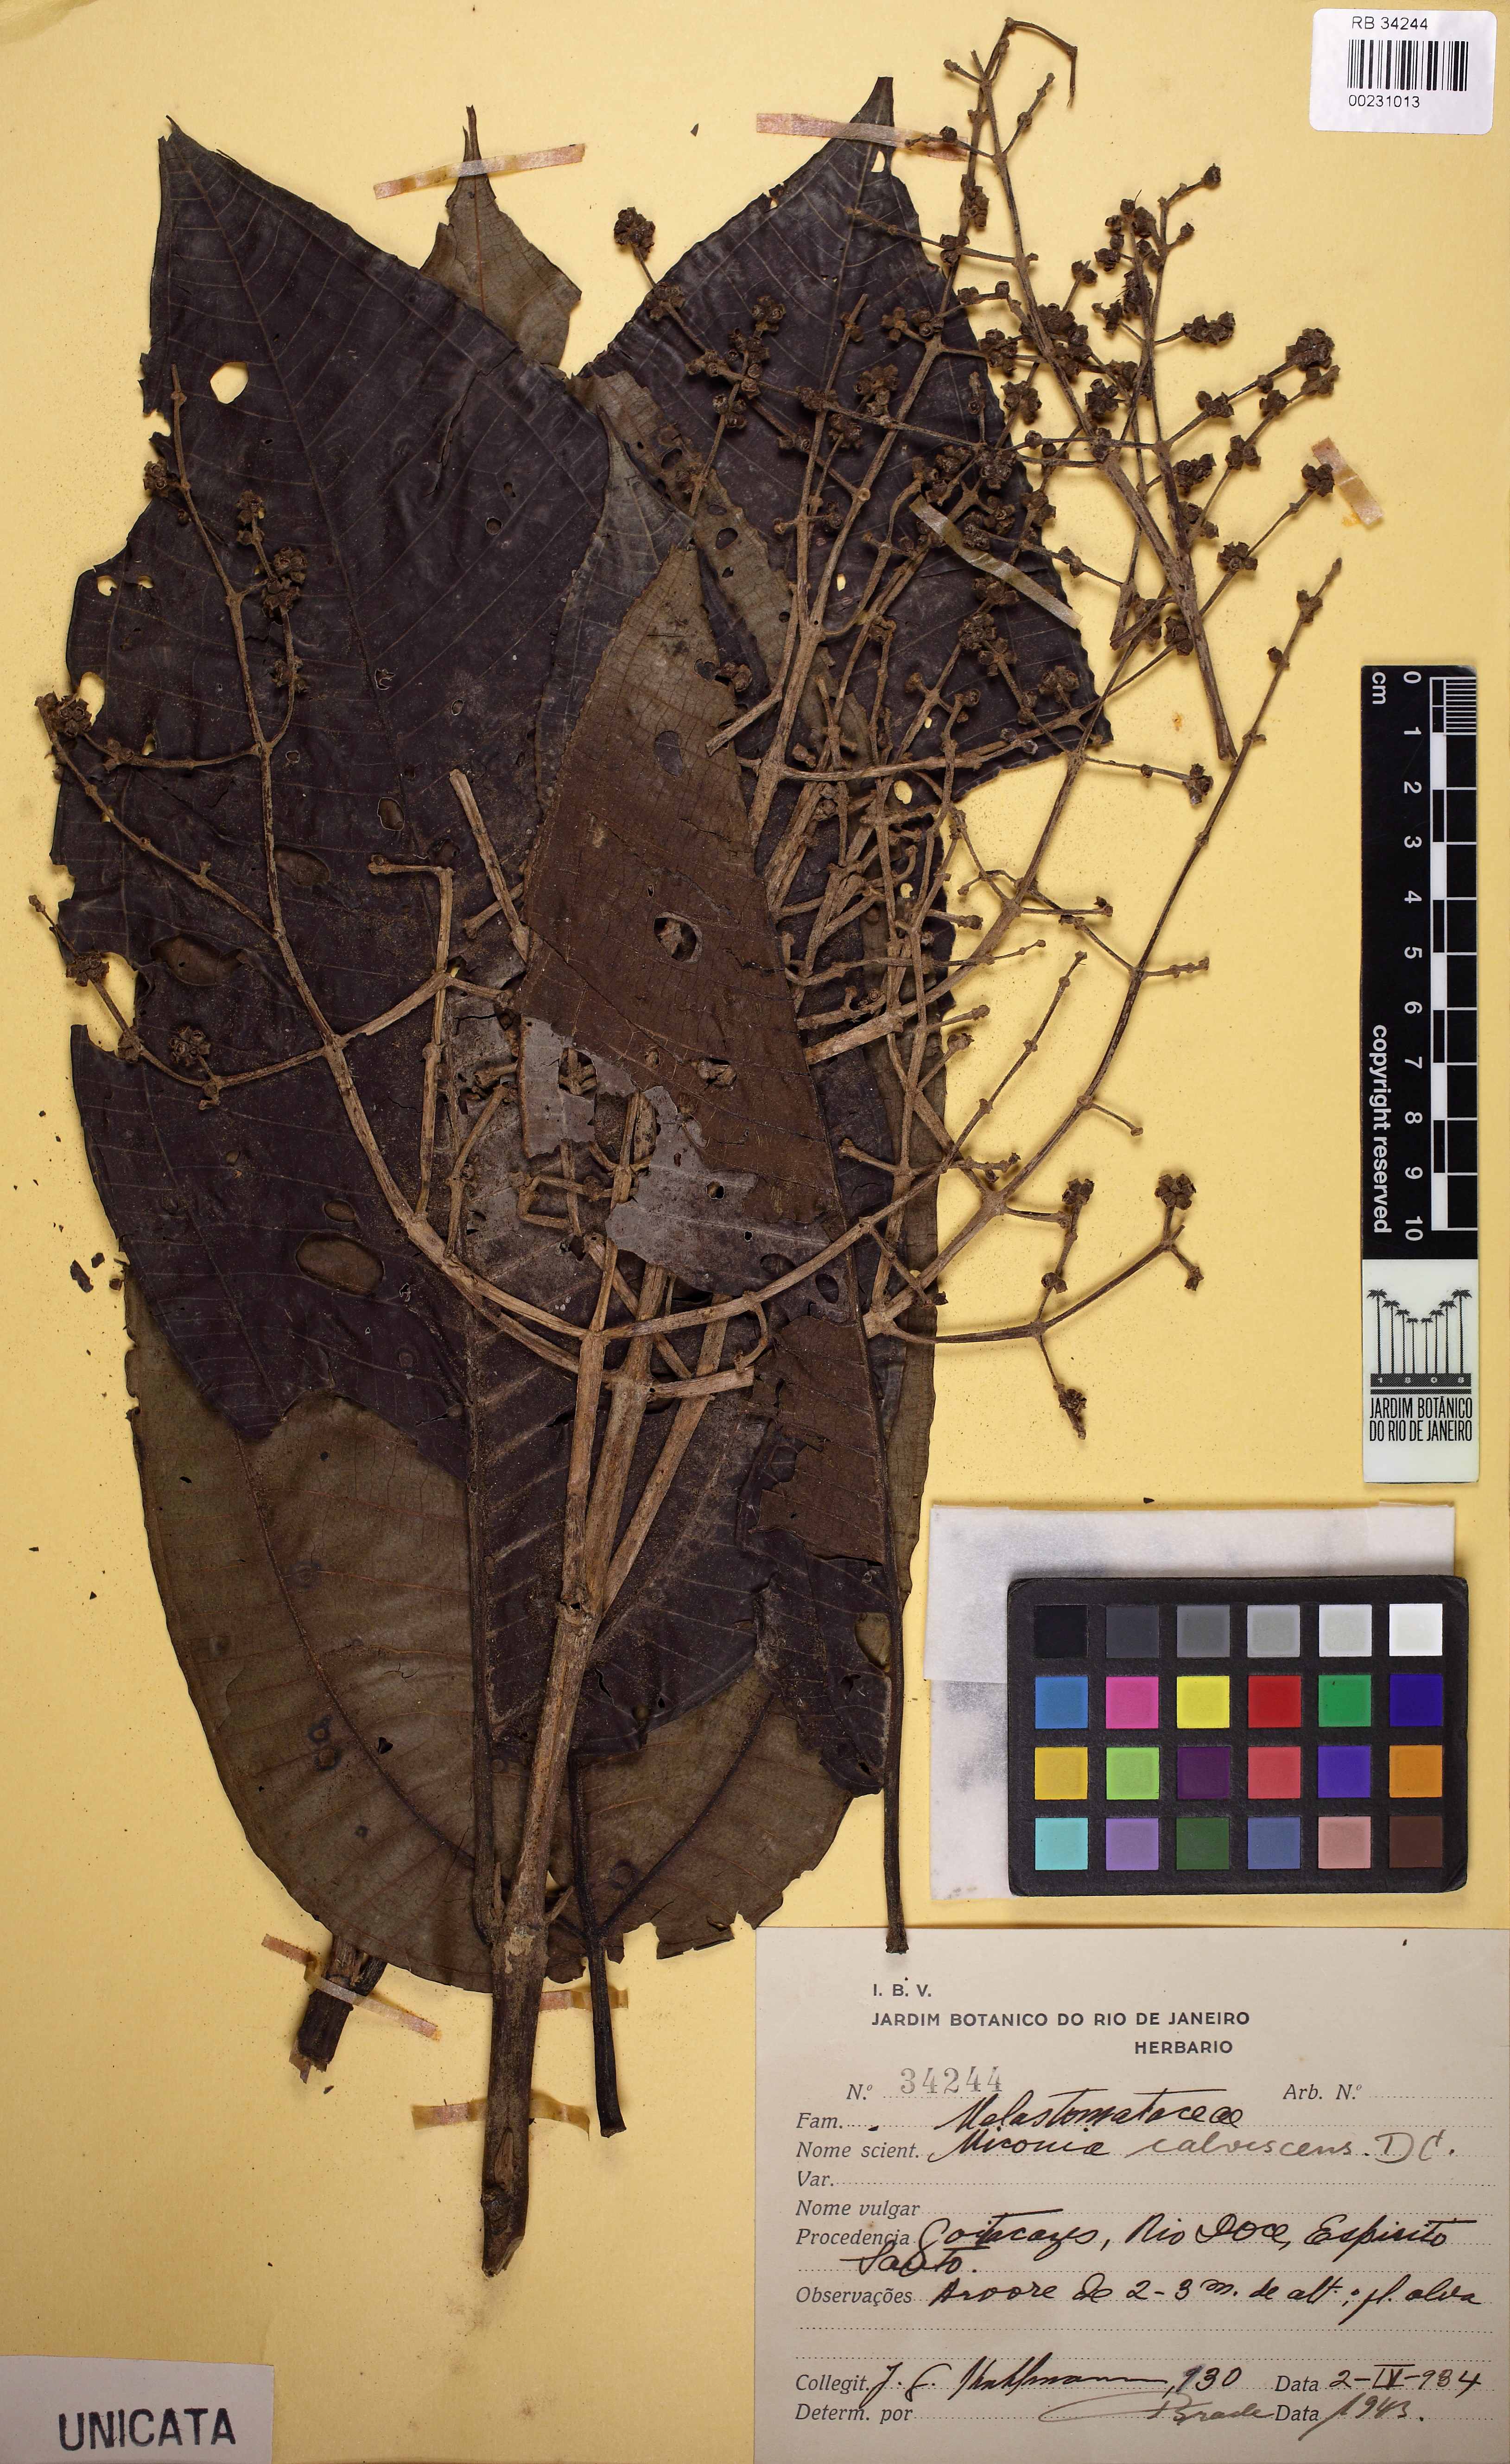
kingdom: Plantae
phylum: Tracheophyta
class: Magnoliopsida
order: Myrtales
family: Melastomataceae
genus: Miconia
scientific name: Miconia calvescens
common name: Purple plague
